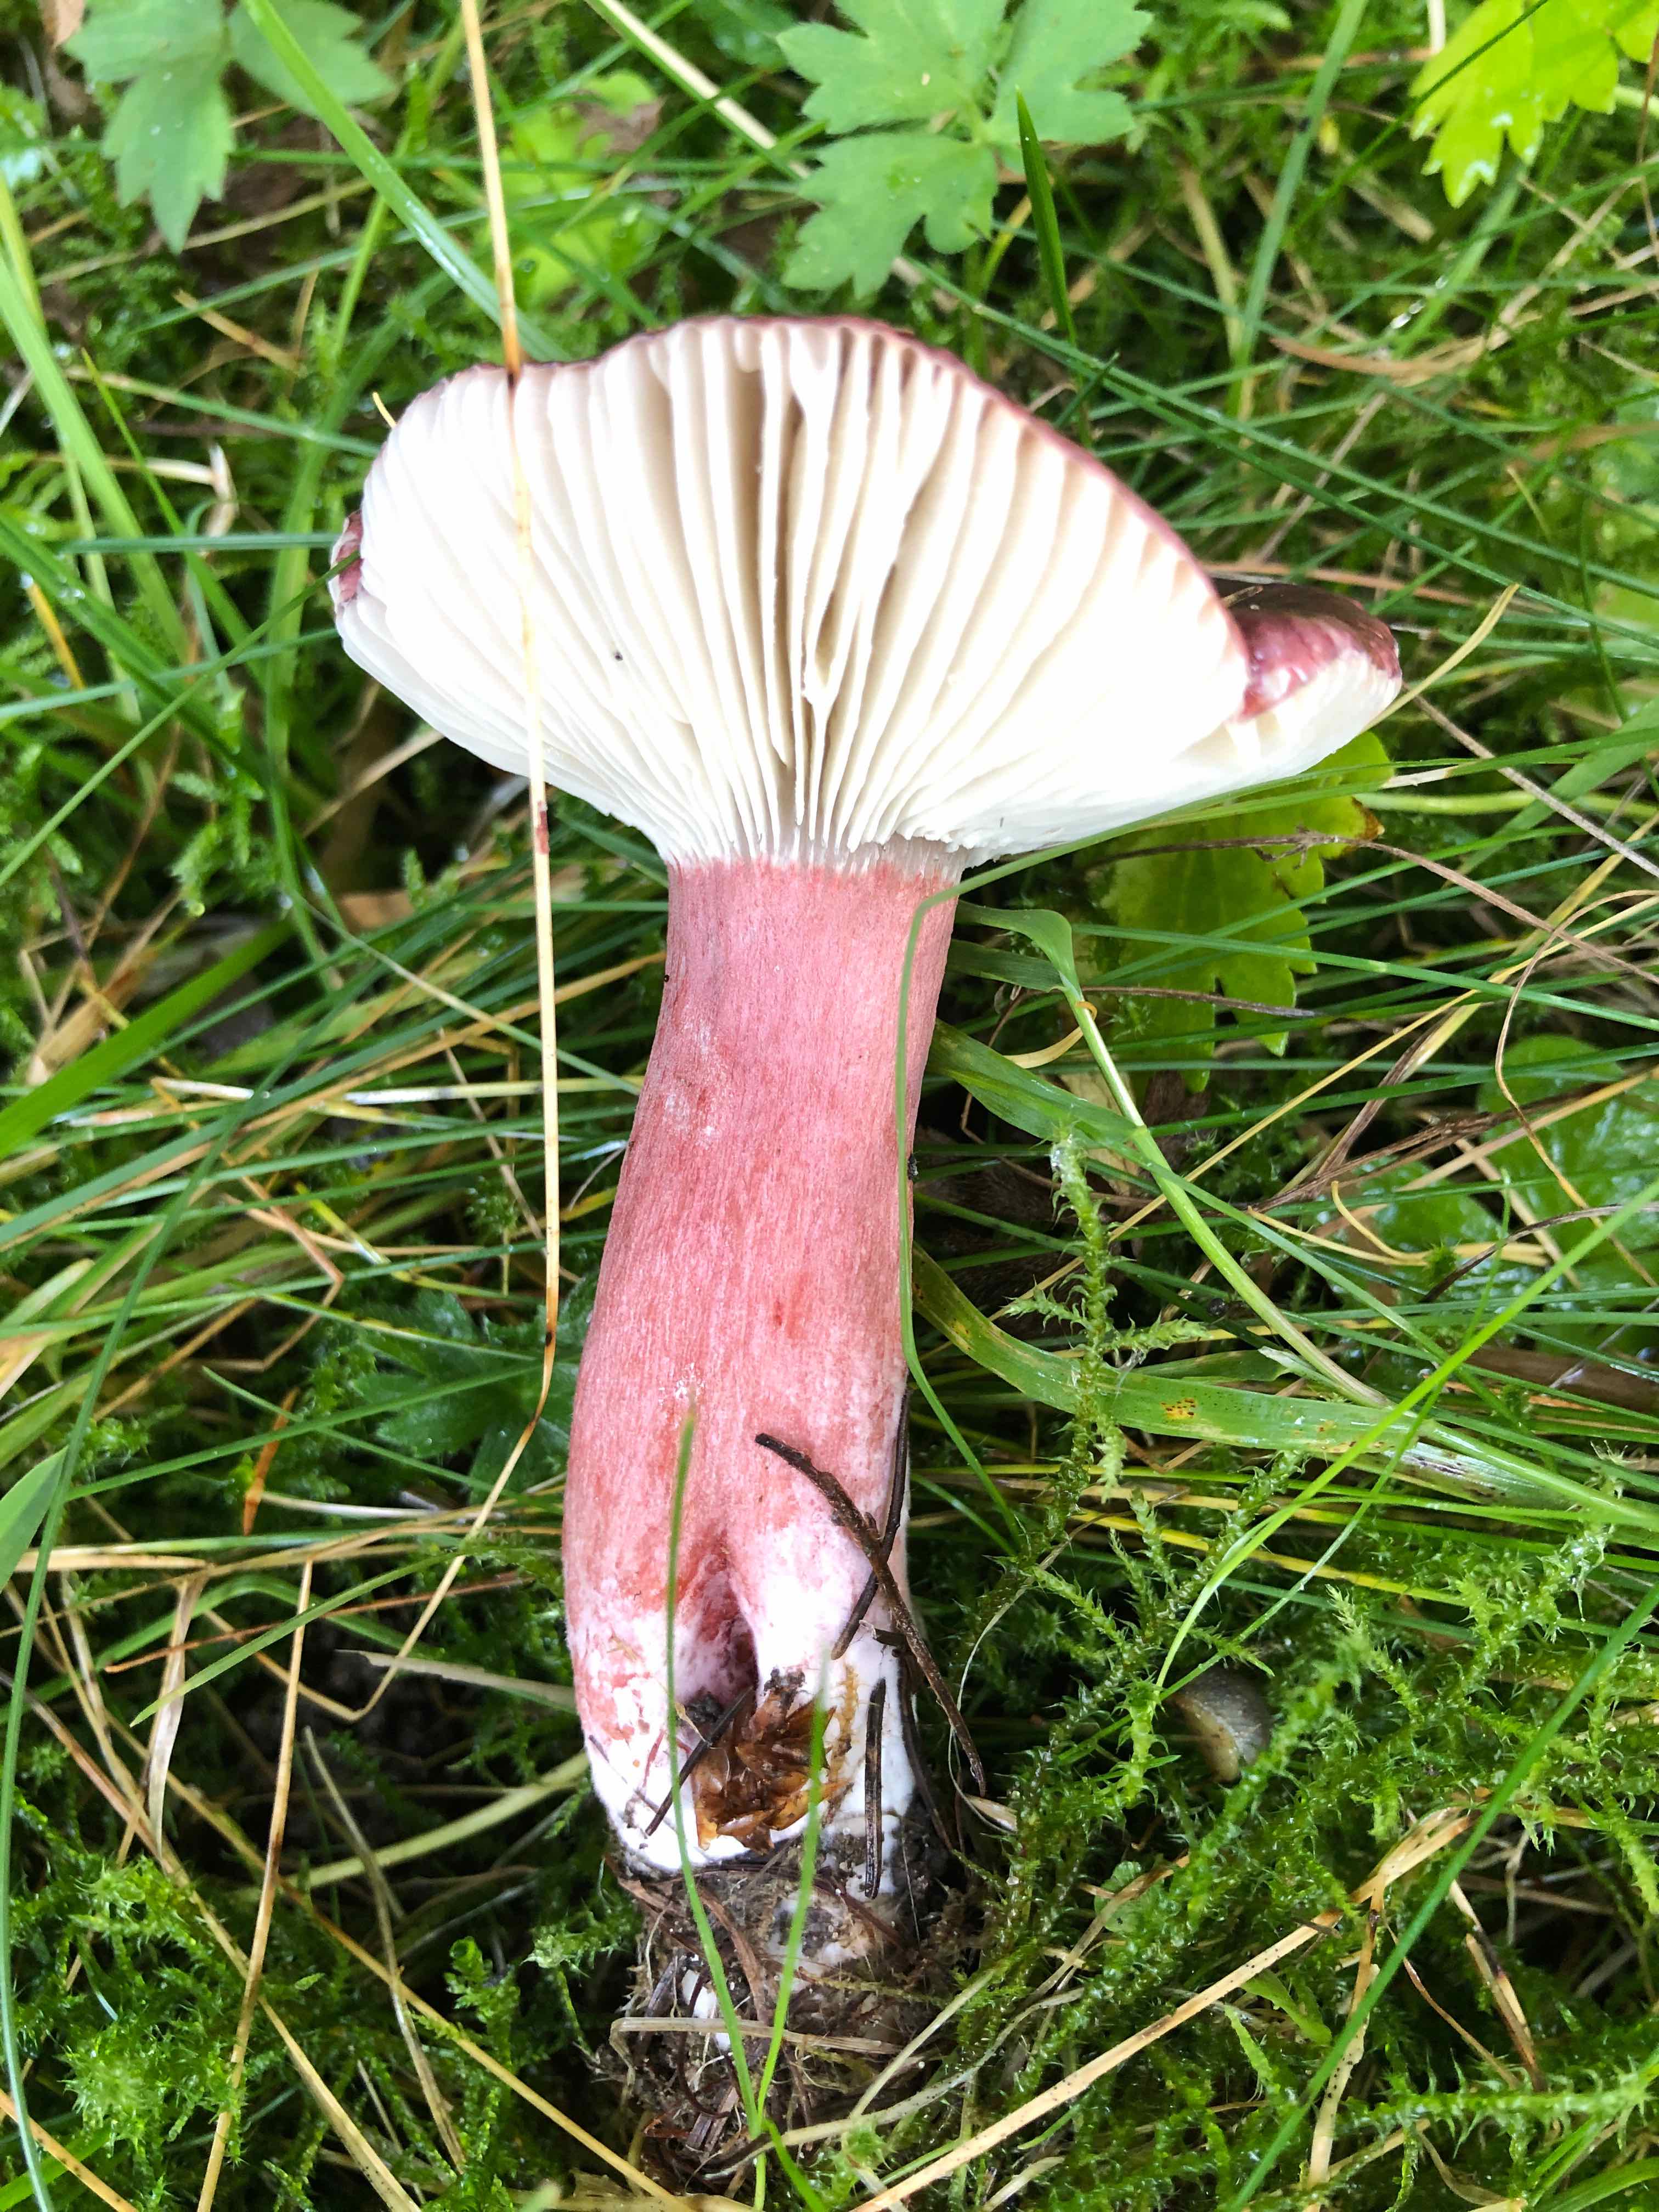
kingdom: Fungi
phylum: Basidiomycota
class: Agaricomycetes
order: Russulales
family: Russulaceae
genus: Russula
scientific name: Russula queletii
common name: Quélets skørhat
